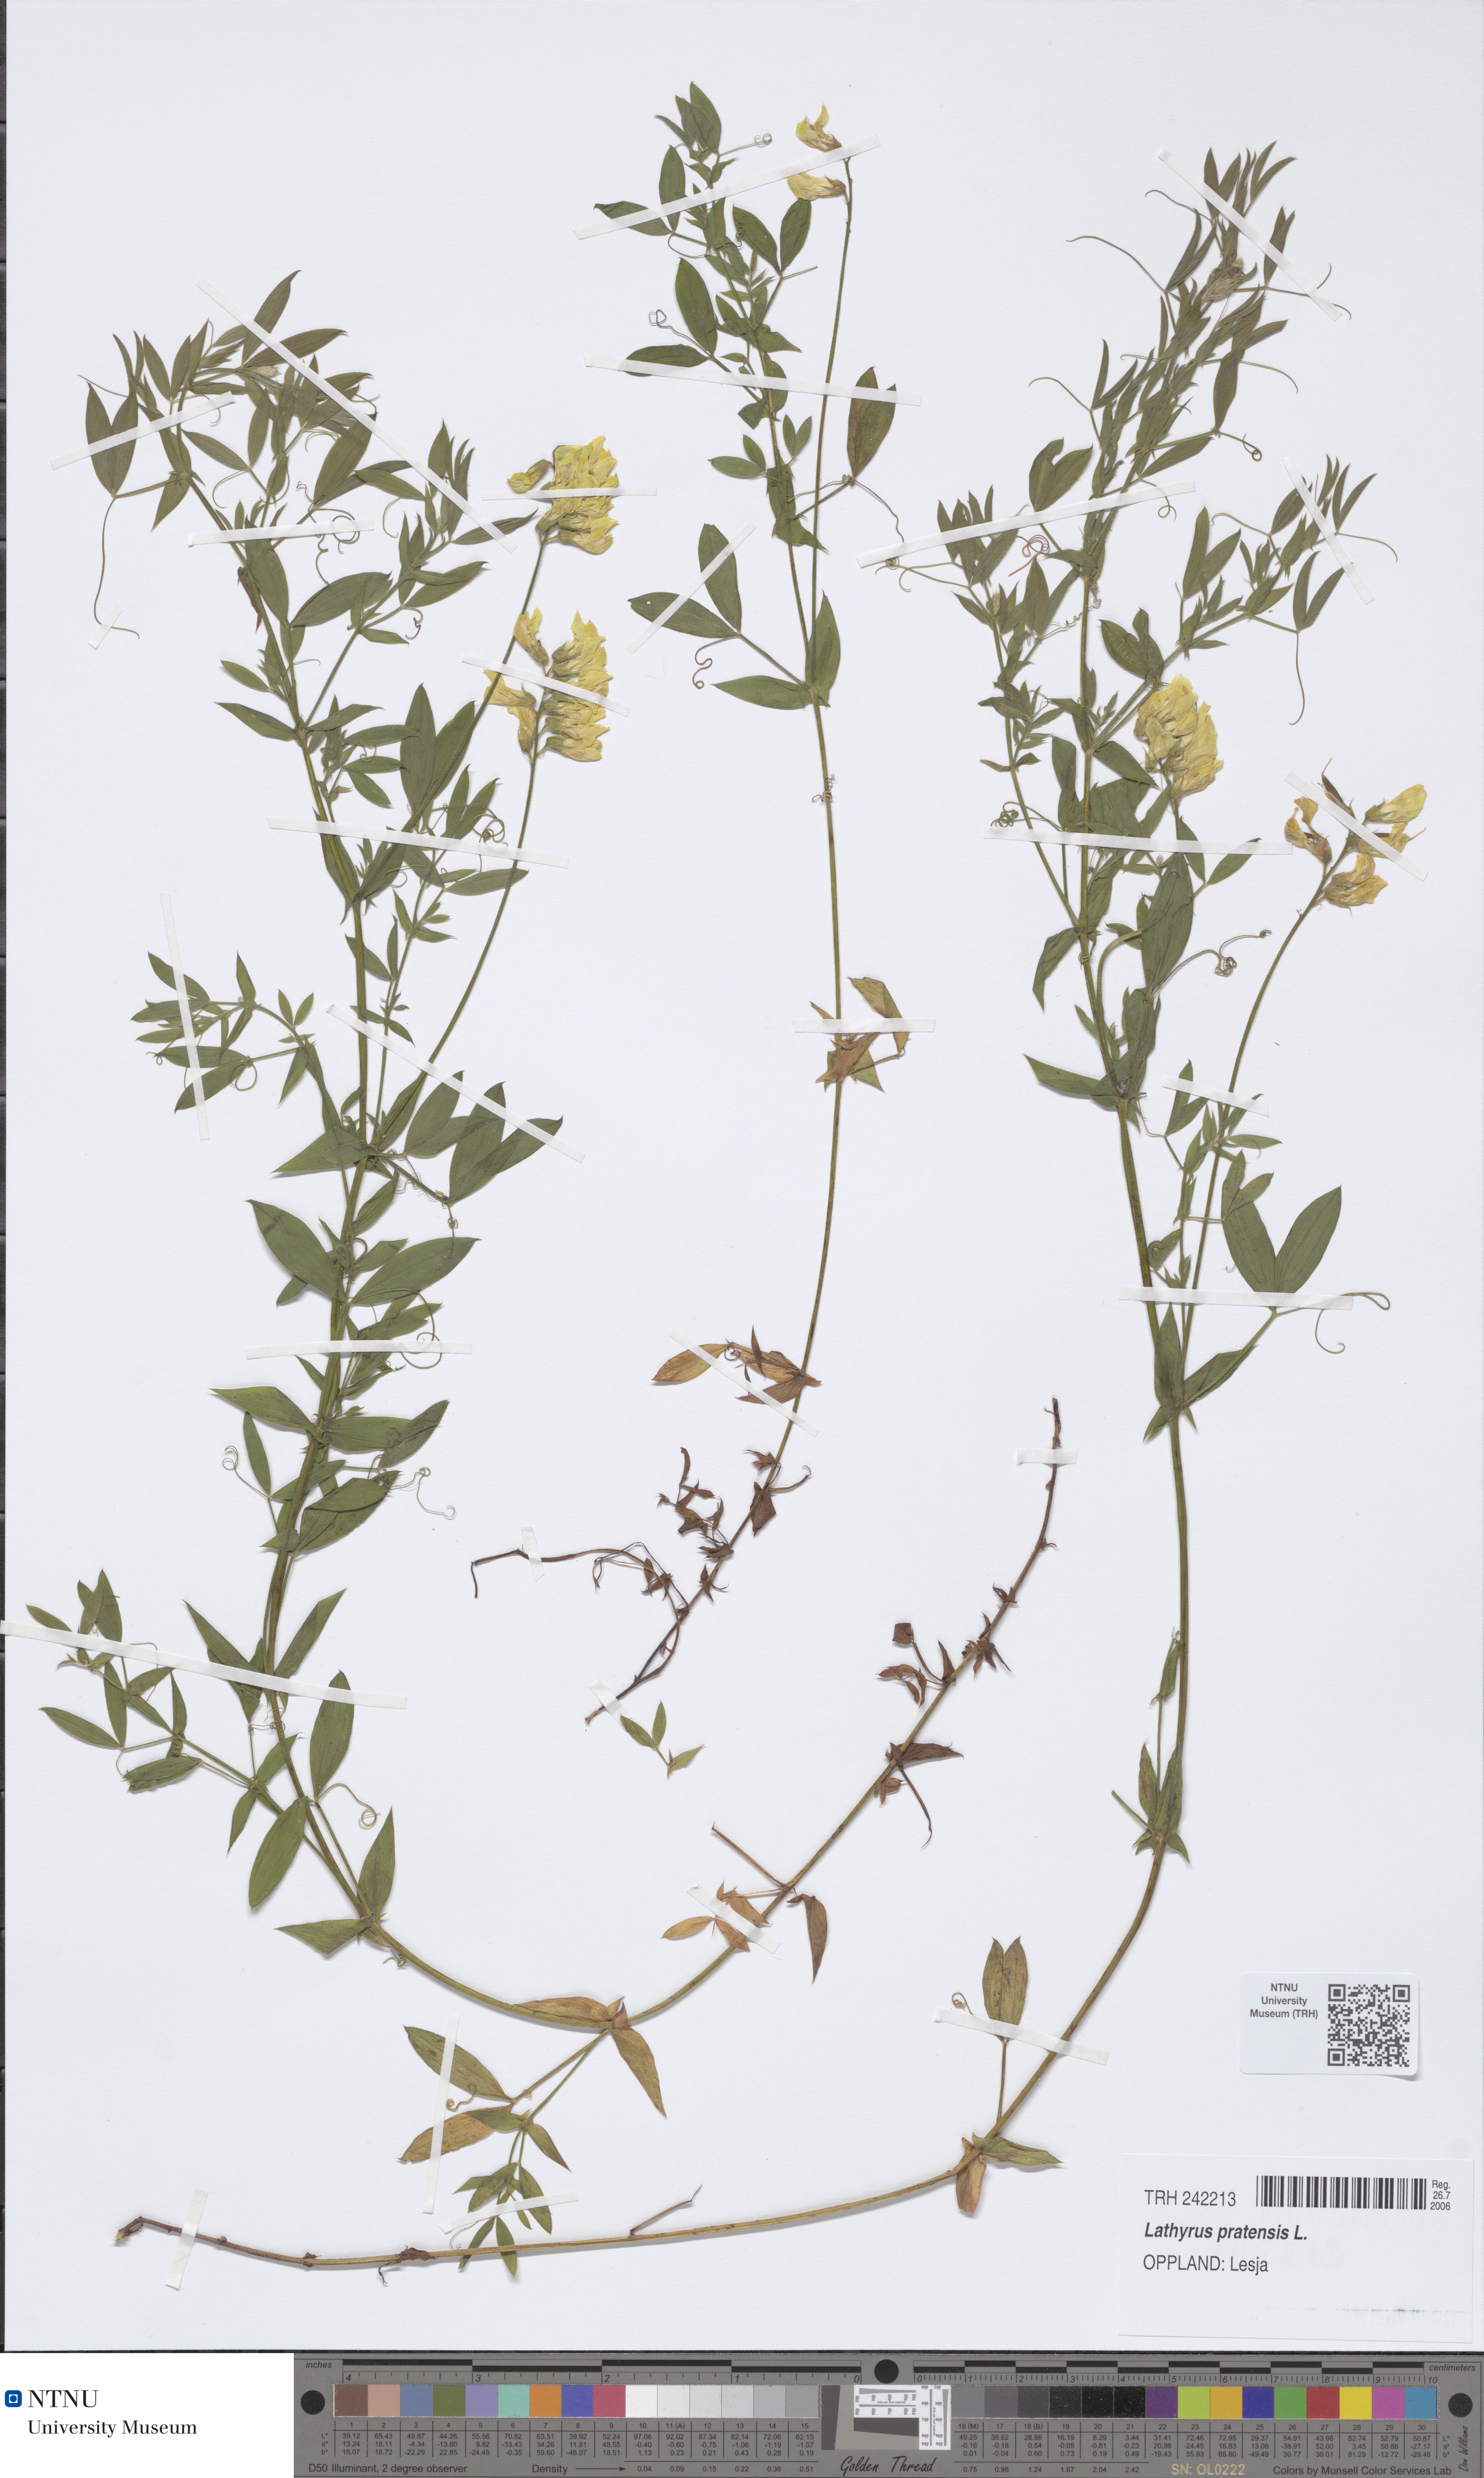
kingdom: Plantae
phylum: Tracheophyta
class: Magnoliopsida
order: Fabales
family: Fabaceae
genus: Lathyrus
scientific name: Lathyrus pratensis
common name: Meadow vetchling
